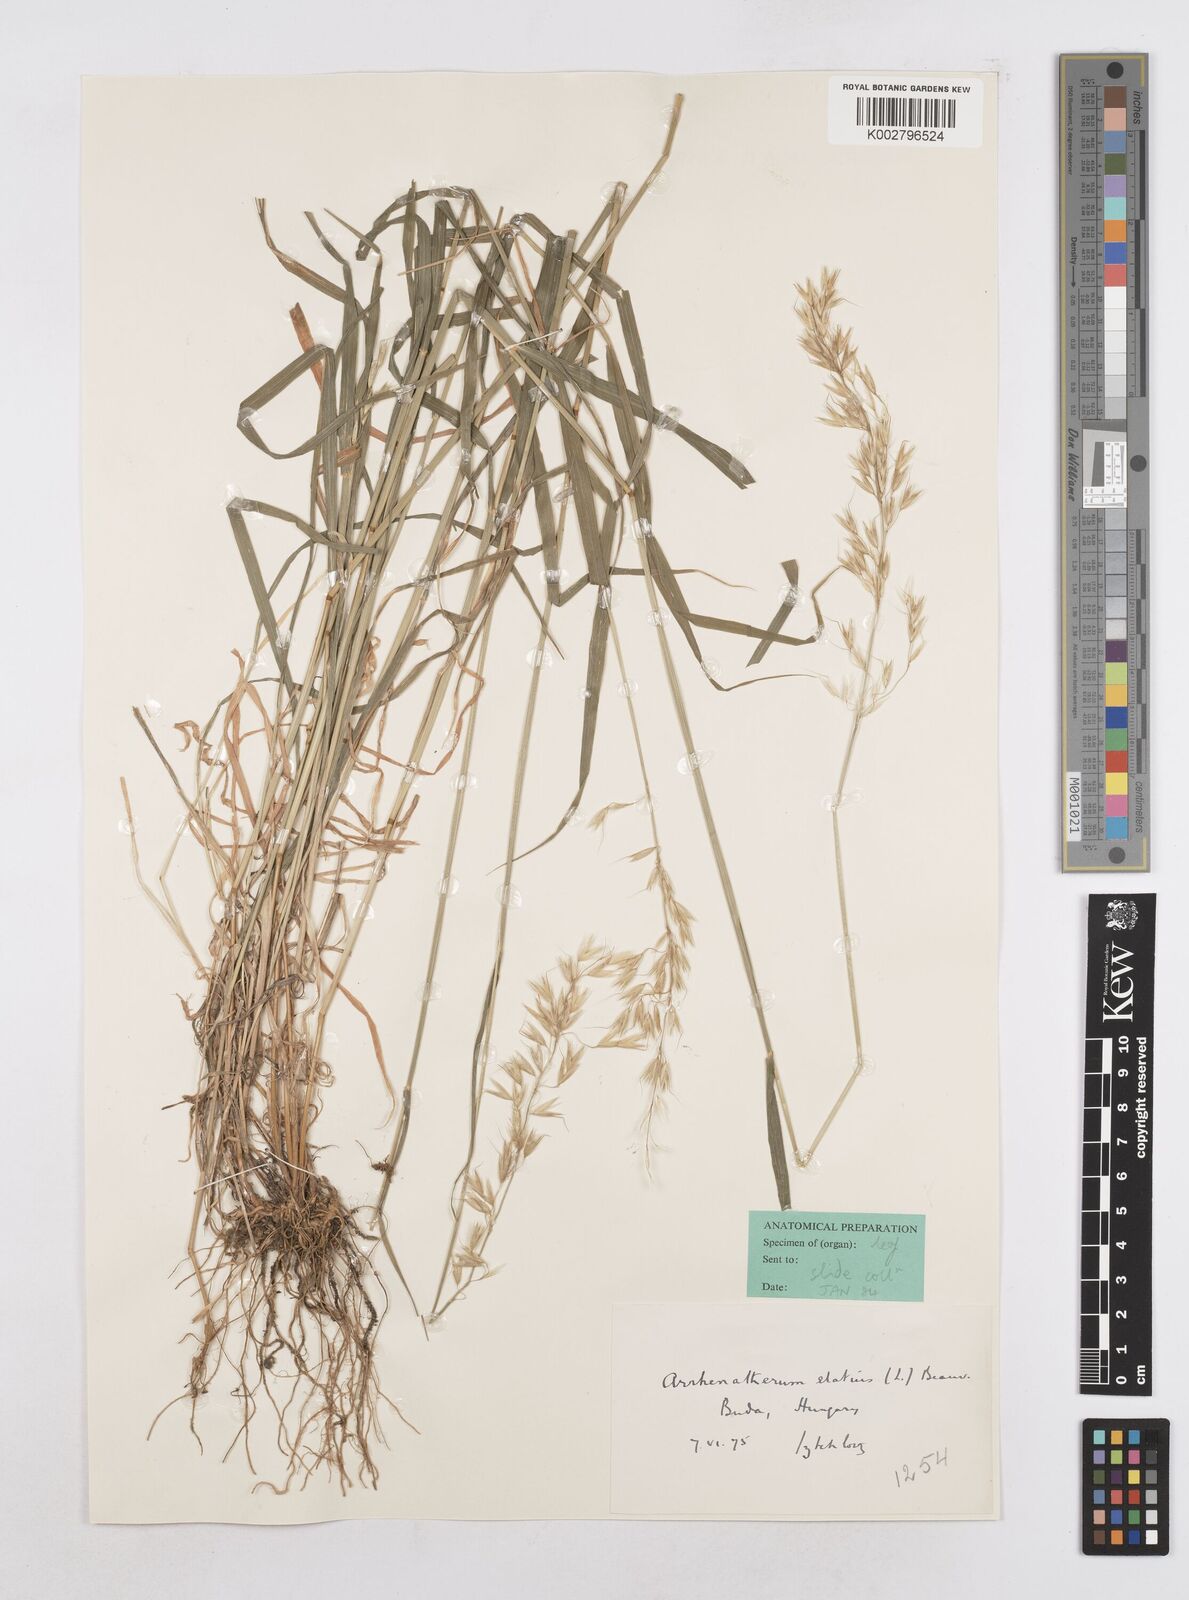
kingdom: Plantae
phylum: Tracheophyta
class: Liliopsida
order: Poales
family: Poaceae
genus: Arrhenatherum
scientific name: Arrhenatherum elatius
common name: Tall oatgrass
